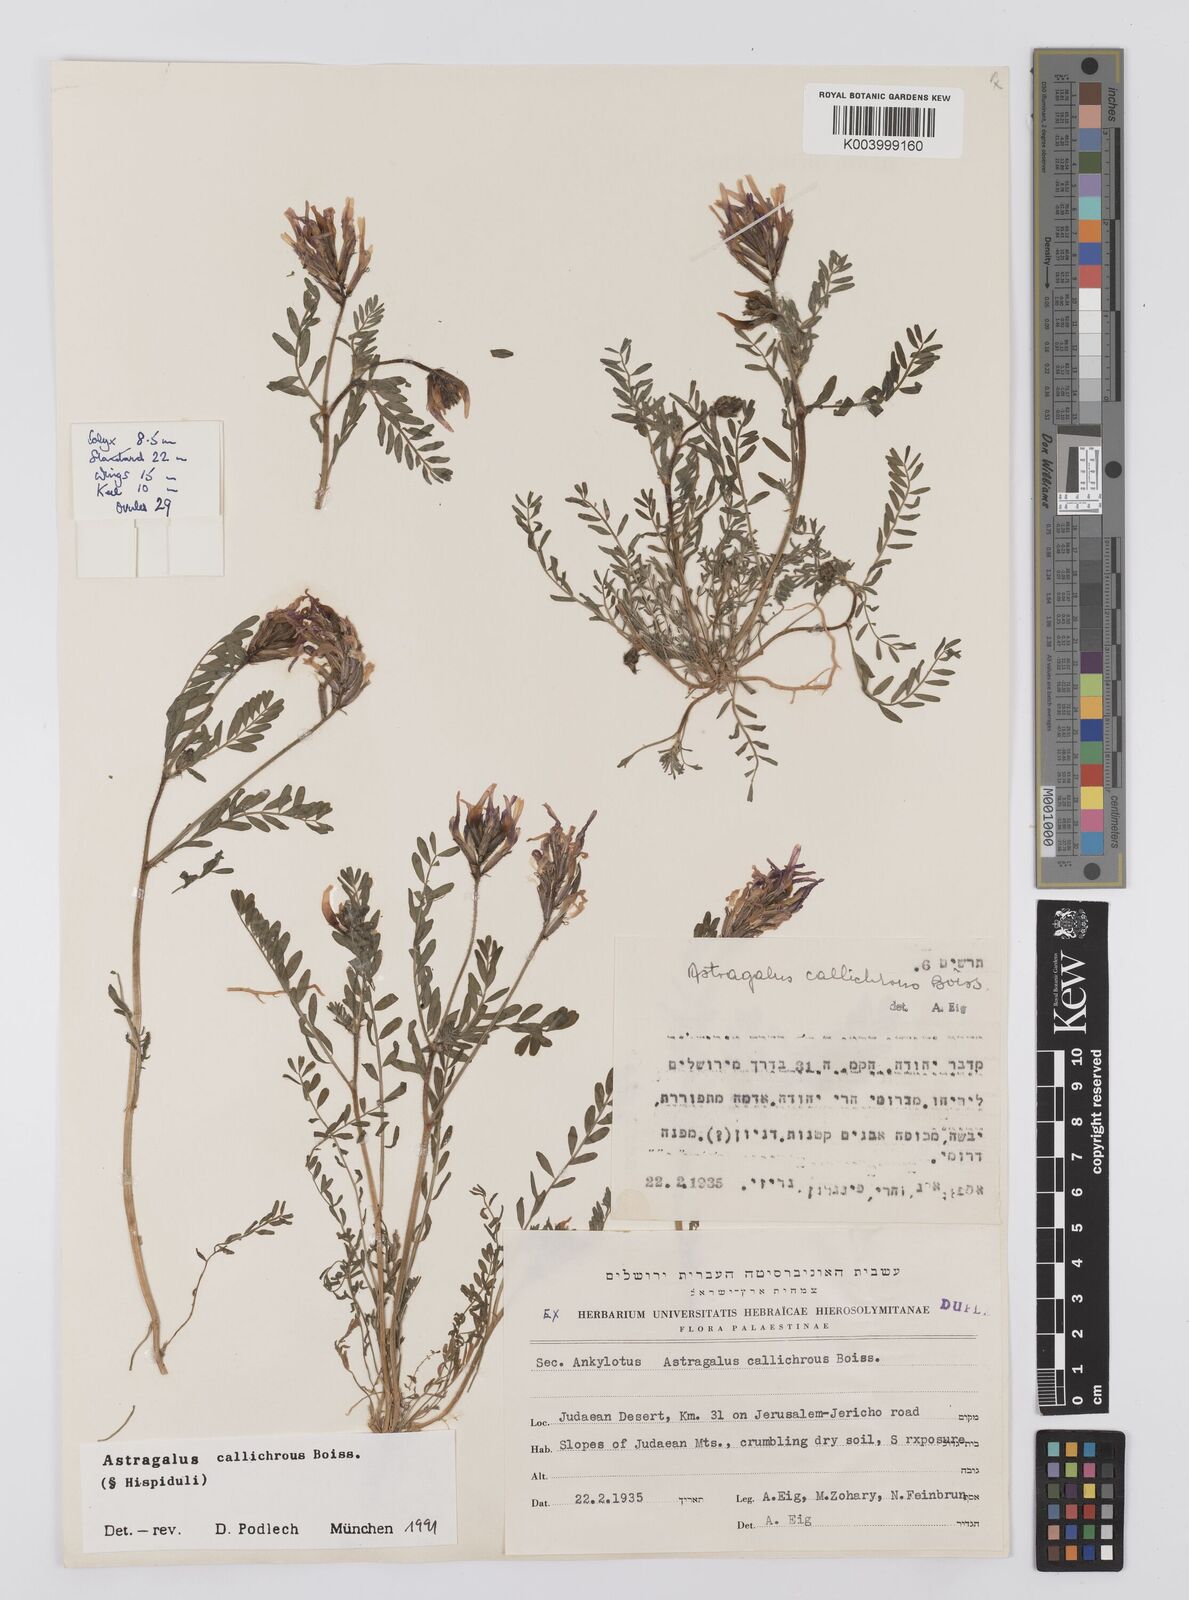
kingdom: Plantae
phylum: Tracheophyta
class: Magnoliopsida
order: Fabales
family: Fabaceae
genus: Astragalus
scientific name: Astragalus callichrous
